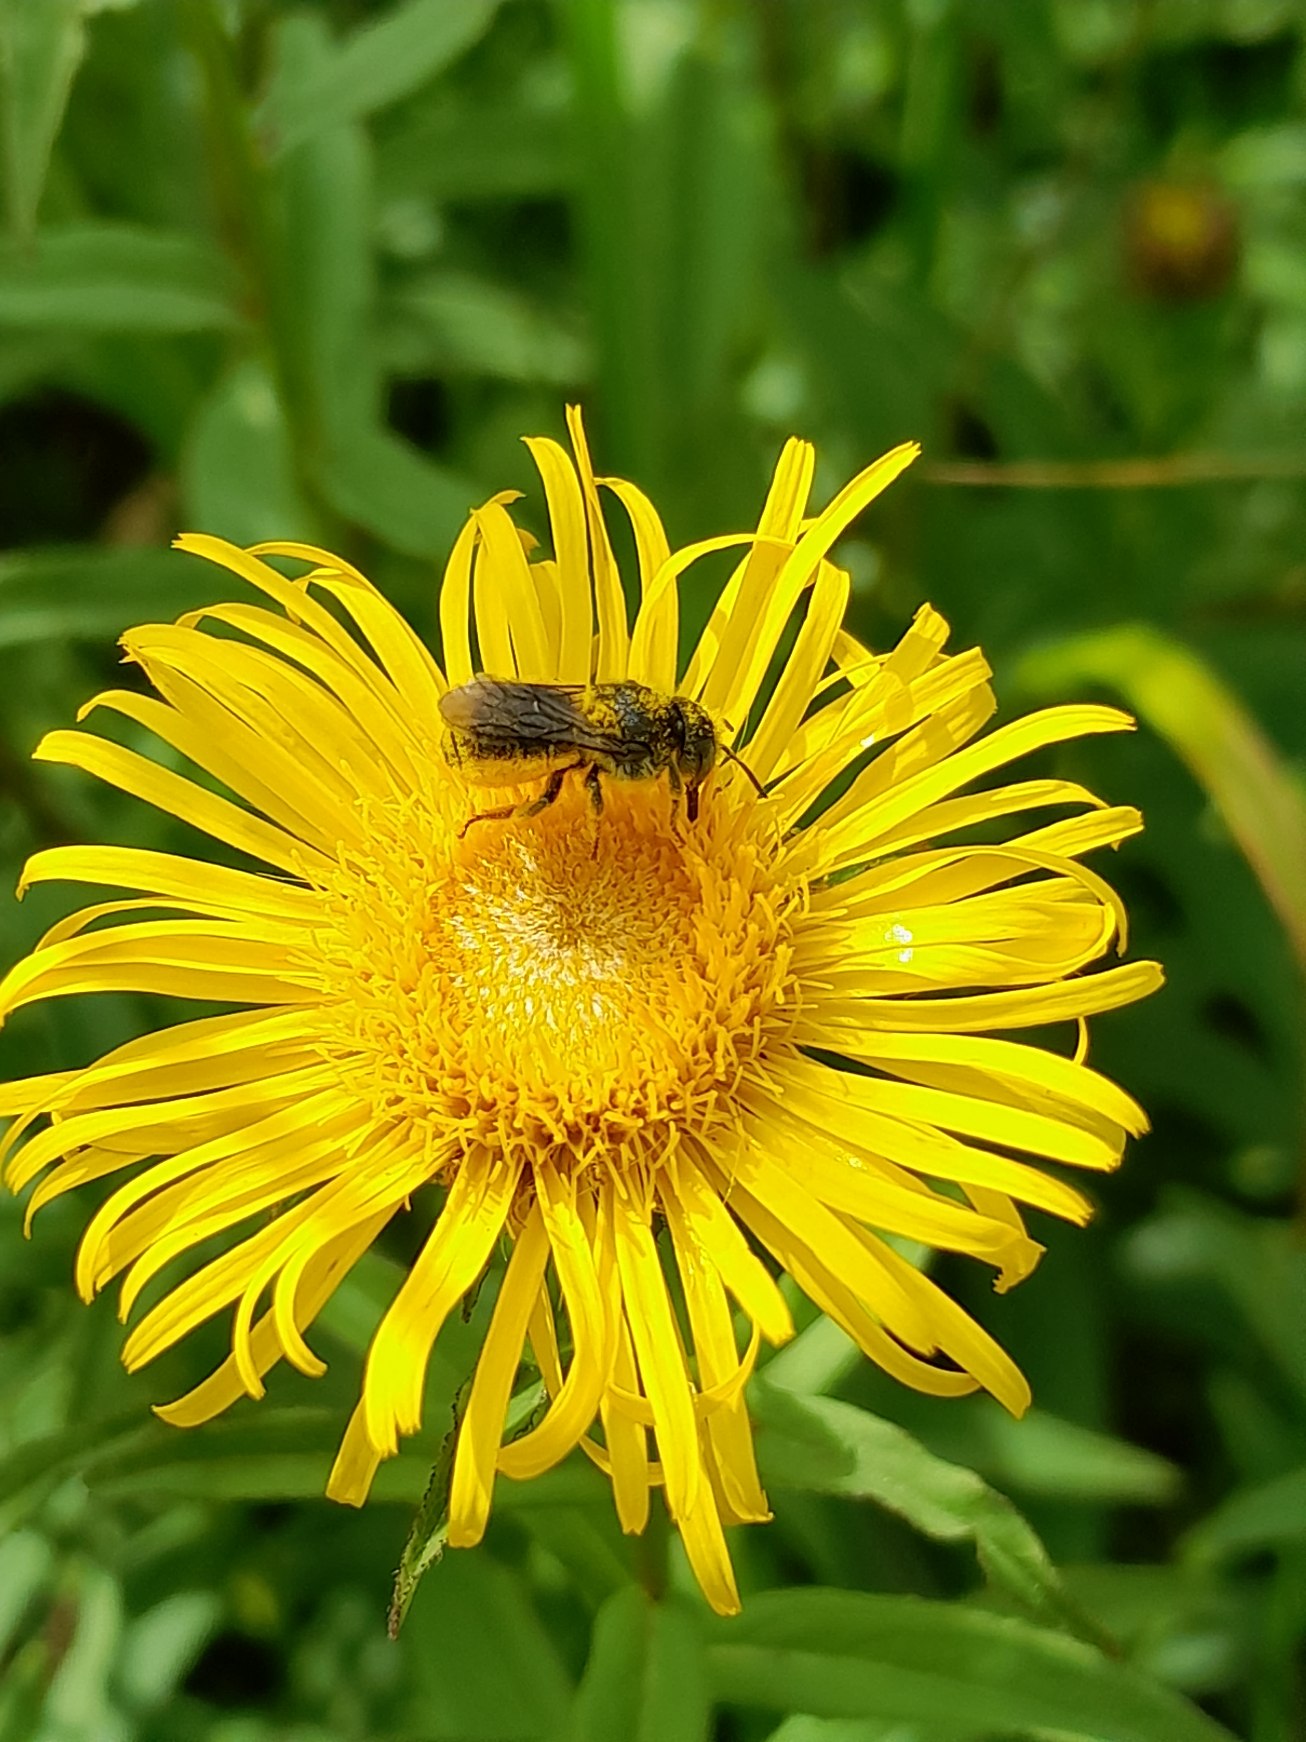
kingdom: Plantae
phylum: Tracheophyta
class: Magnoliopsida
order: Asterales
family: Asteraceae
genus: Pentanema
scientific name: Pentanema salicinum
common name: Pile-alant
